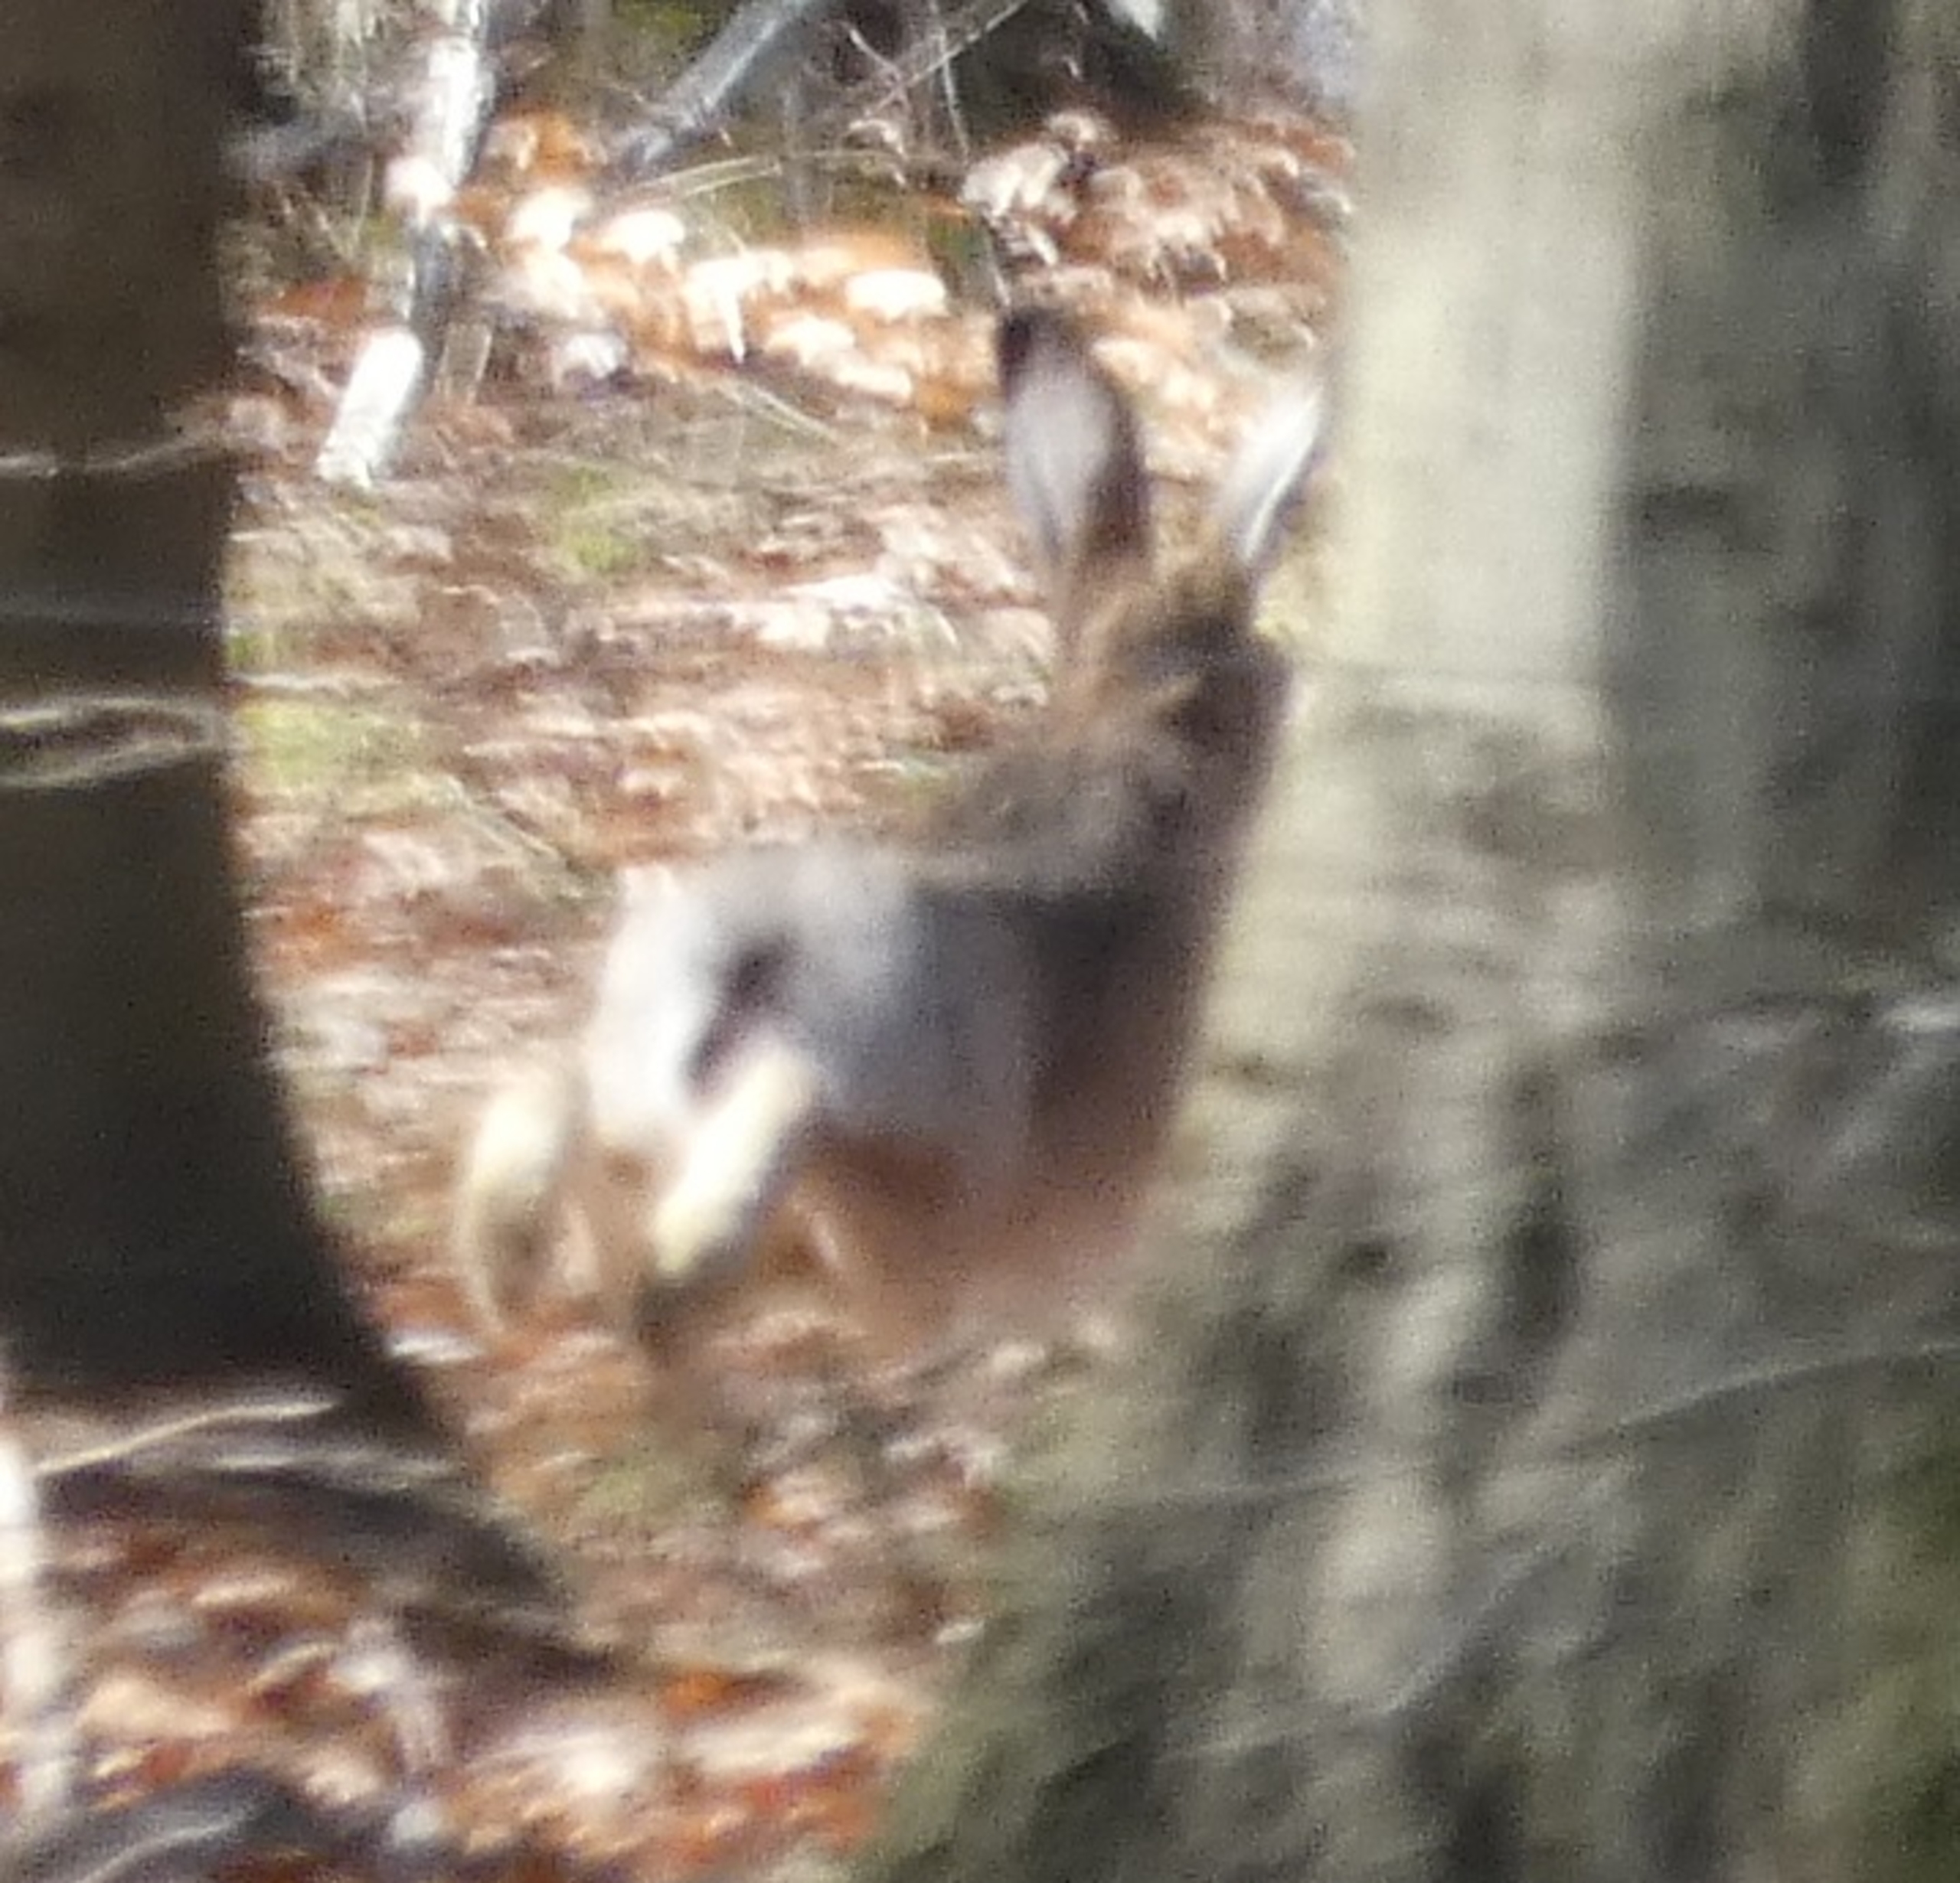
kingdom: Animalia
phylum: Chordata
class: Mammalia
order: Lagomorpha
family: Leporidae
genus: Lepus
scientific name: Lepus europaeus
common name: Hare
